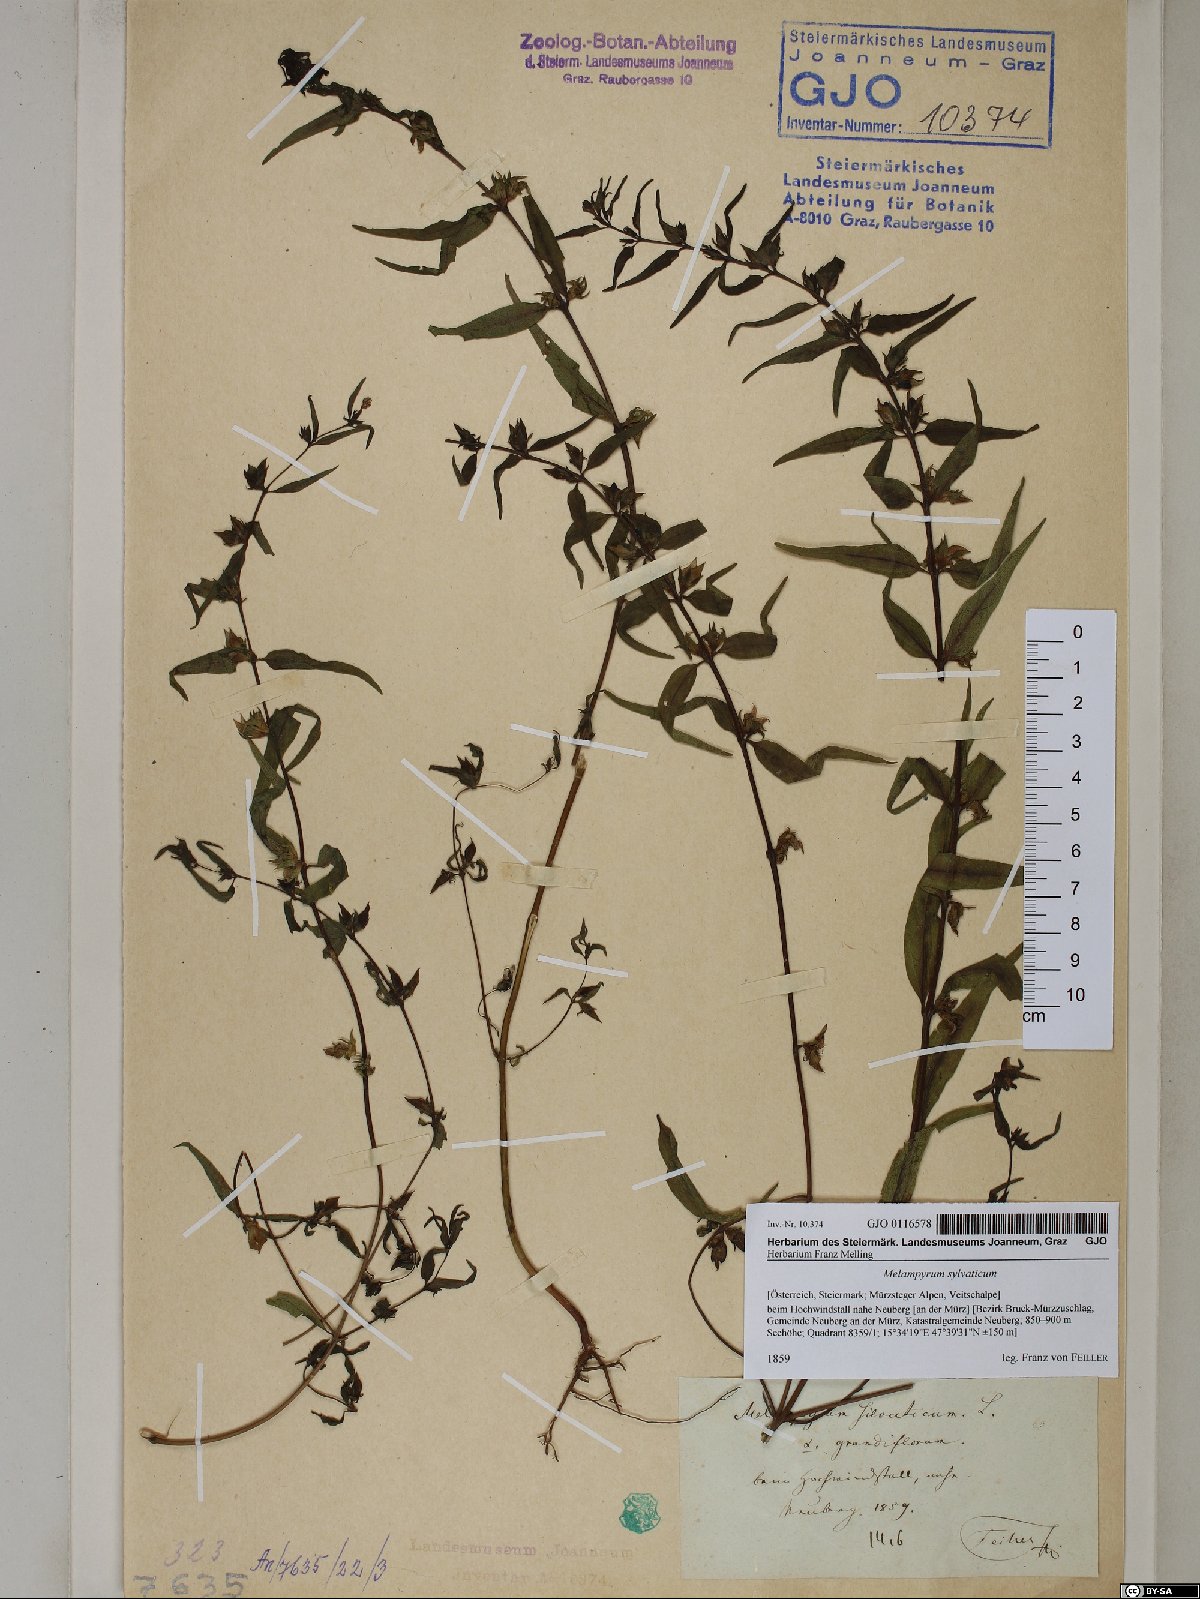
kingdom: Plantae
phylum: Tracheophyta
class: Magnoliopsida
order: Lamiales
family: Orobanchaceae
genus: Melampyrum
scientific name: Melampyrum sylvaticum
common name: Small cow-wheat
